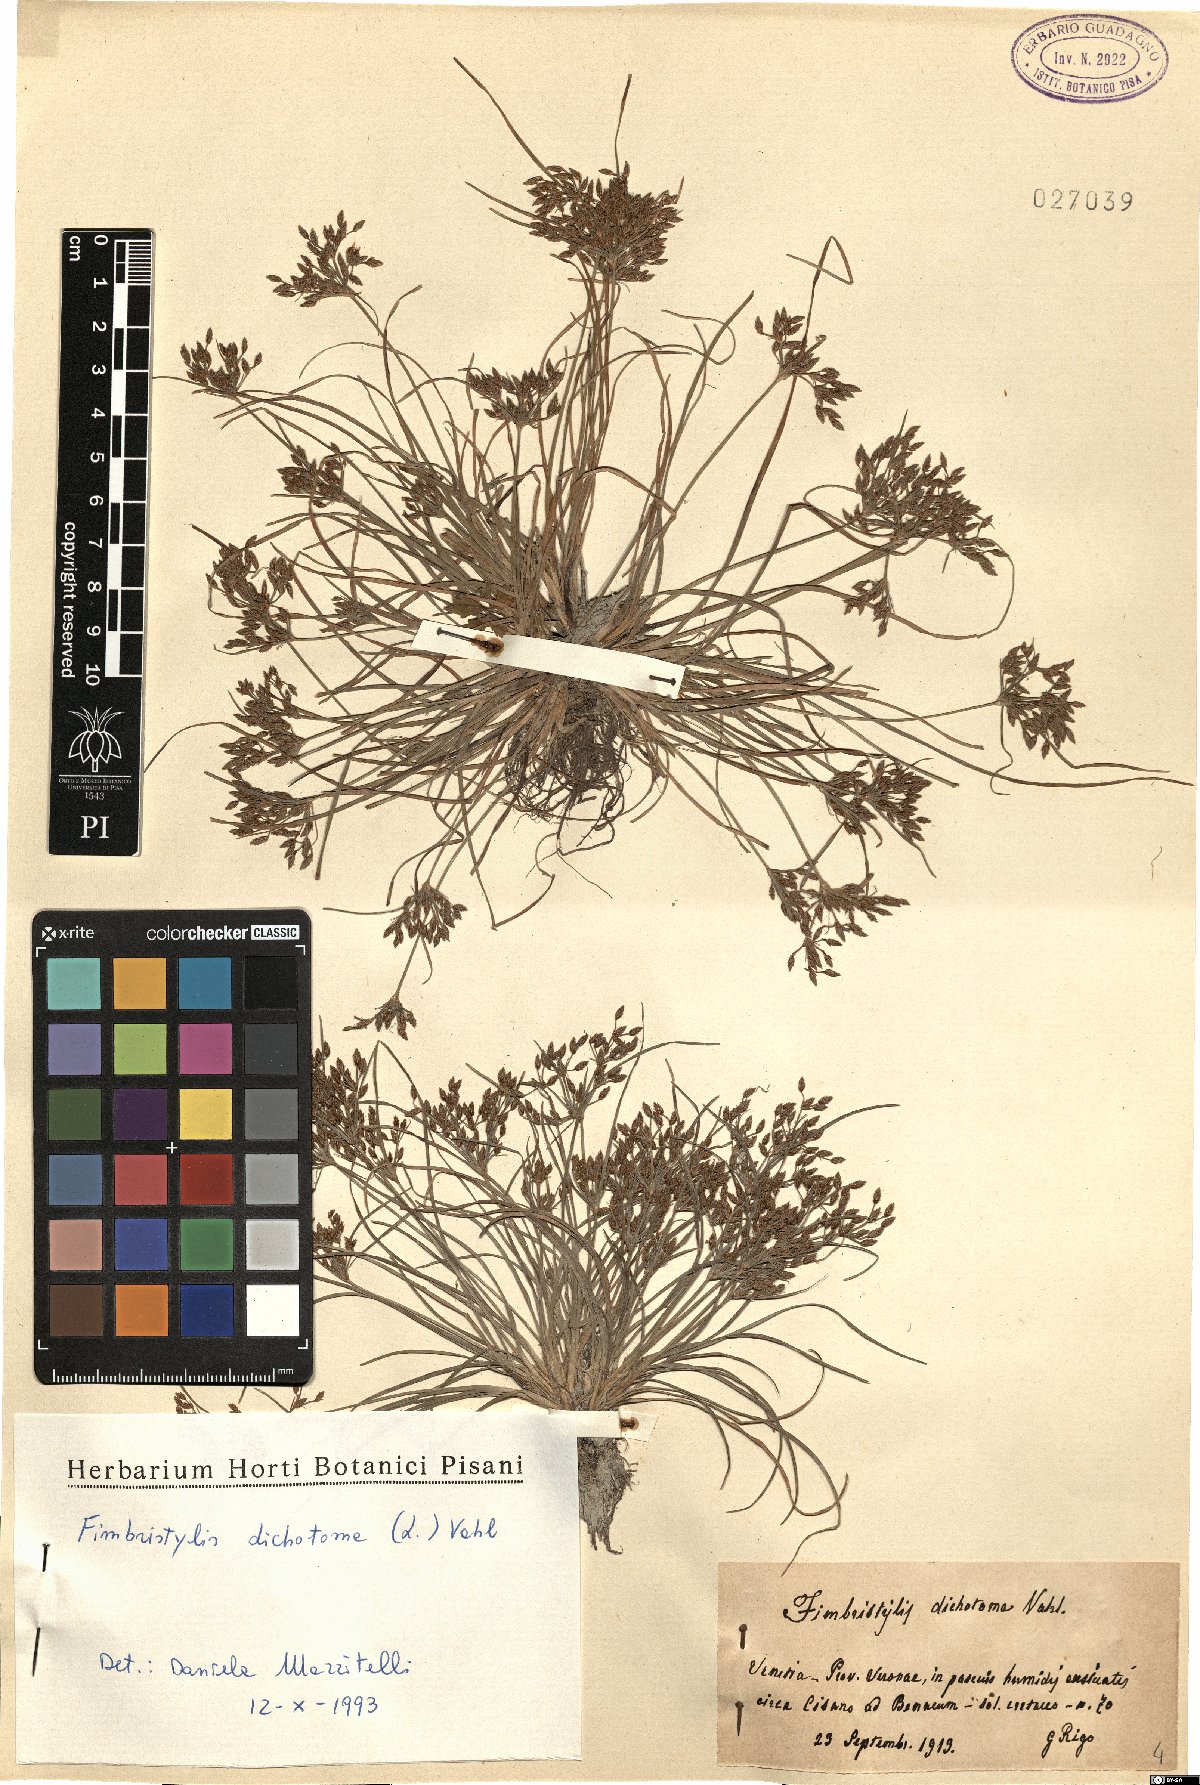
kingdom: Plantae
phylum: Tracheophyta
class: Liliopsida
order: Poales
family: Cyperaceae
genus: Fimbristylis
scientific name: Fimbristylis dichotoma
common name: Forked fimbry
